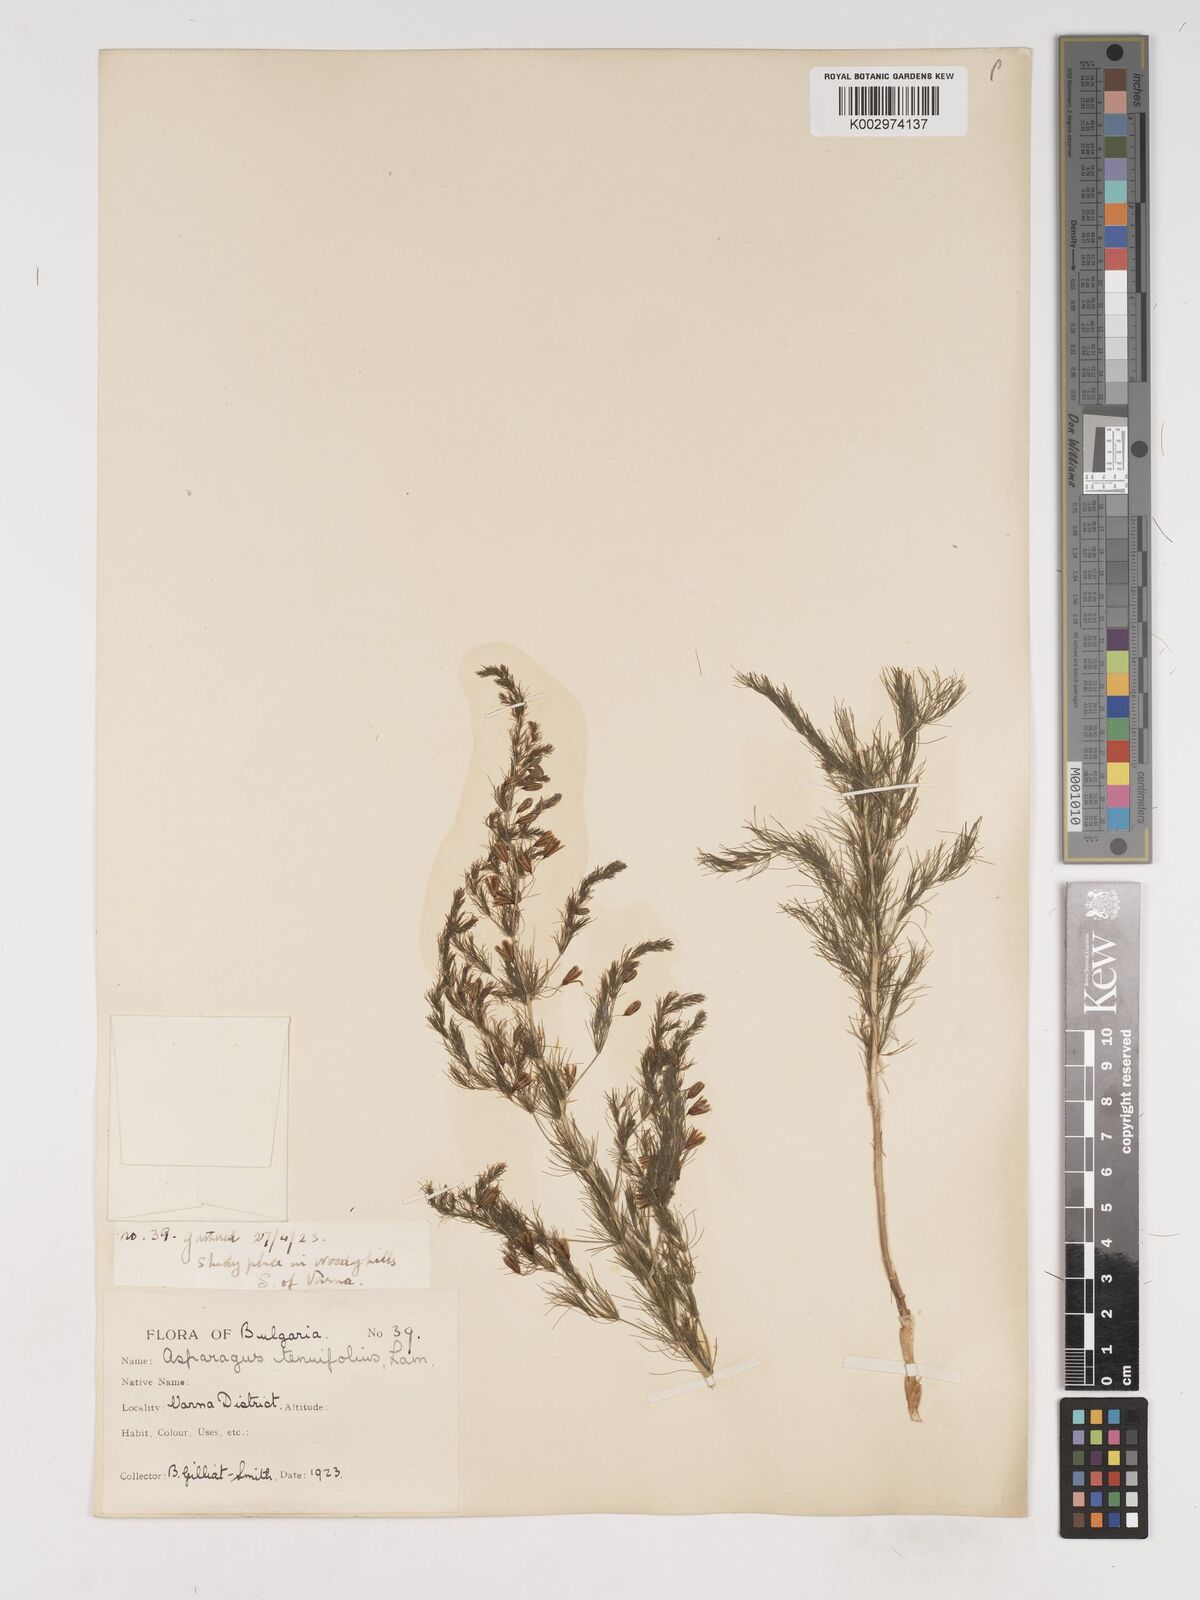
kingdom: Plantae
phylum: Tracheophyta
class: Liliopsida
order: Asparagales
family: Asparagaceae
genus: Asparagus
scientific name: Asparagus tenuifolius
